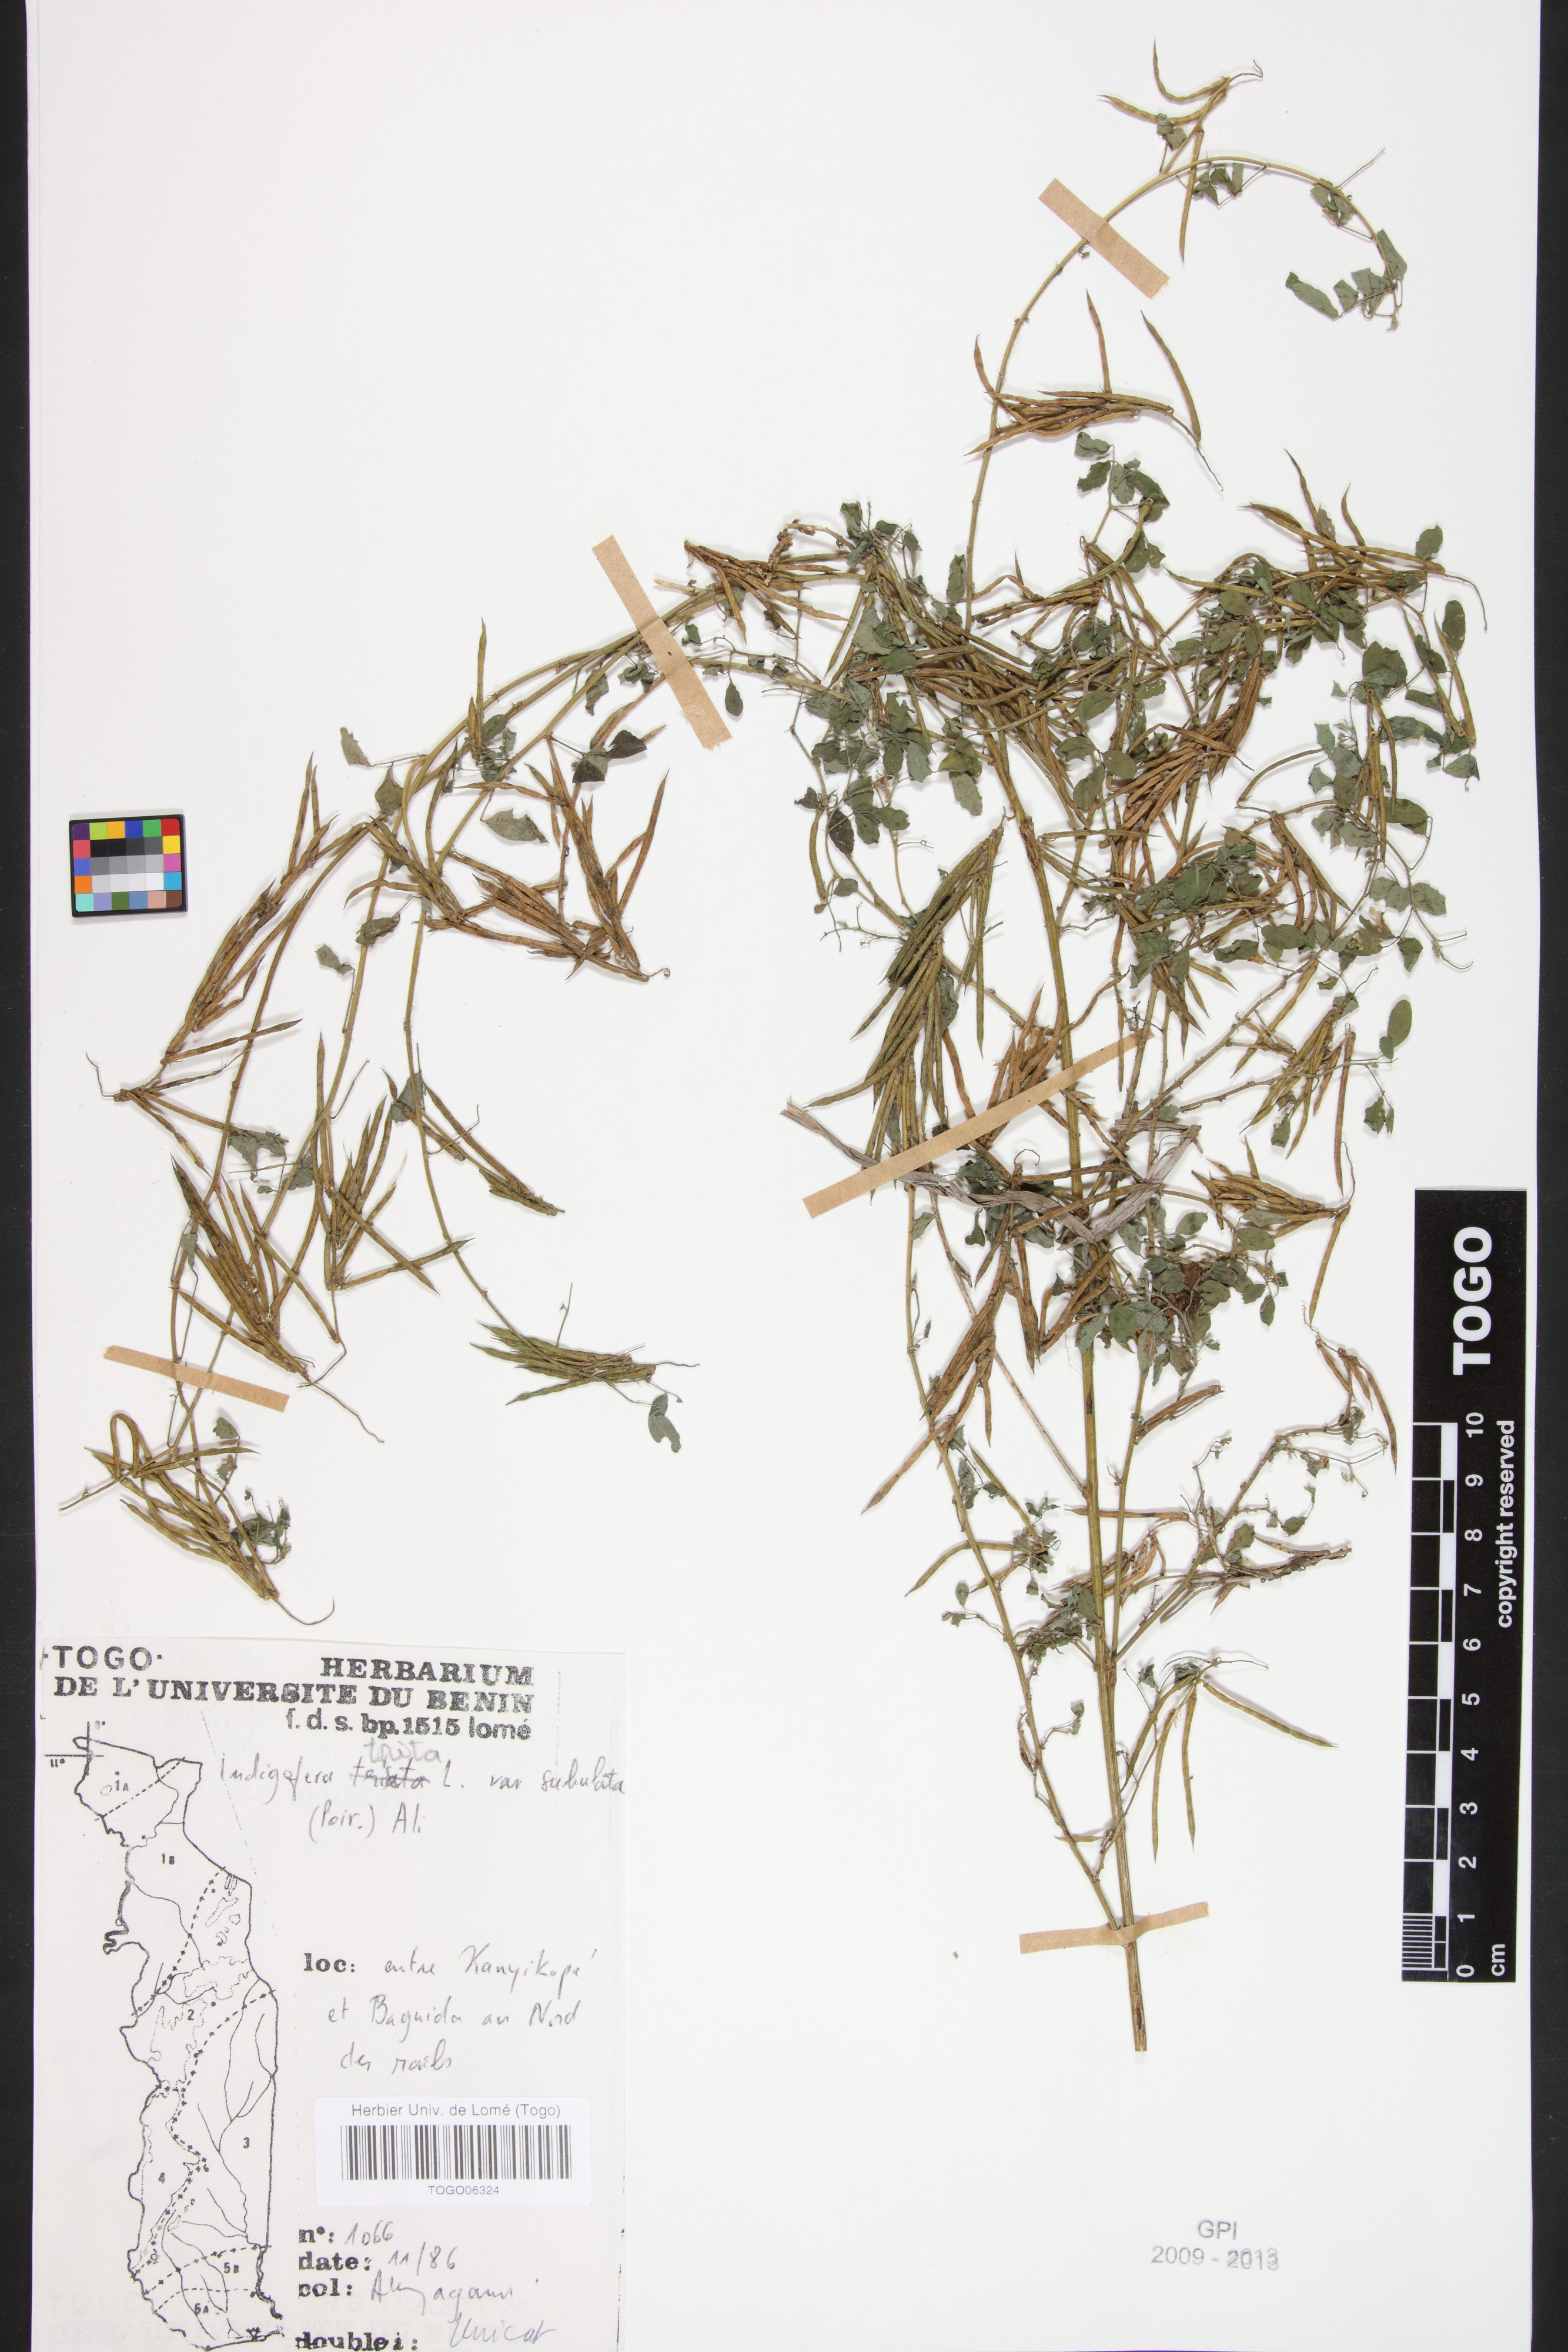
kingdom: Plantae
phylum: Tracheophyta
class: Magnoliopsida
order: Fabales
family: Fabaceae
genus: Indigofera
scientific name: Indigofera subulata
